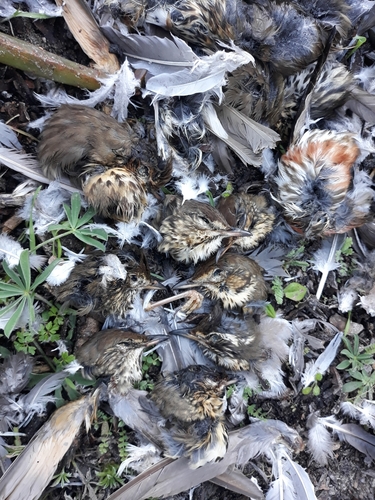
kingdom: Animalia
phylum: Chordata
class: Aves
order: Passeriformes
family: Turdidae
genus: Turdus
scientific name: Turdus philomelos
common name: Song thrush
